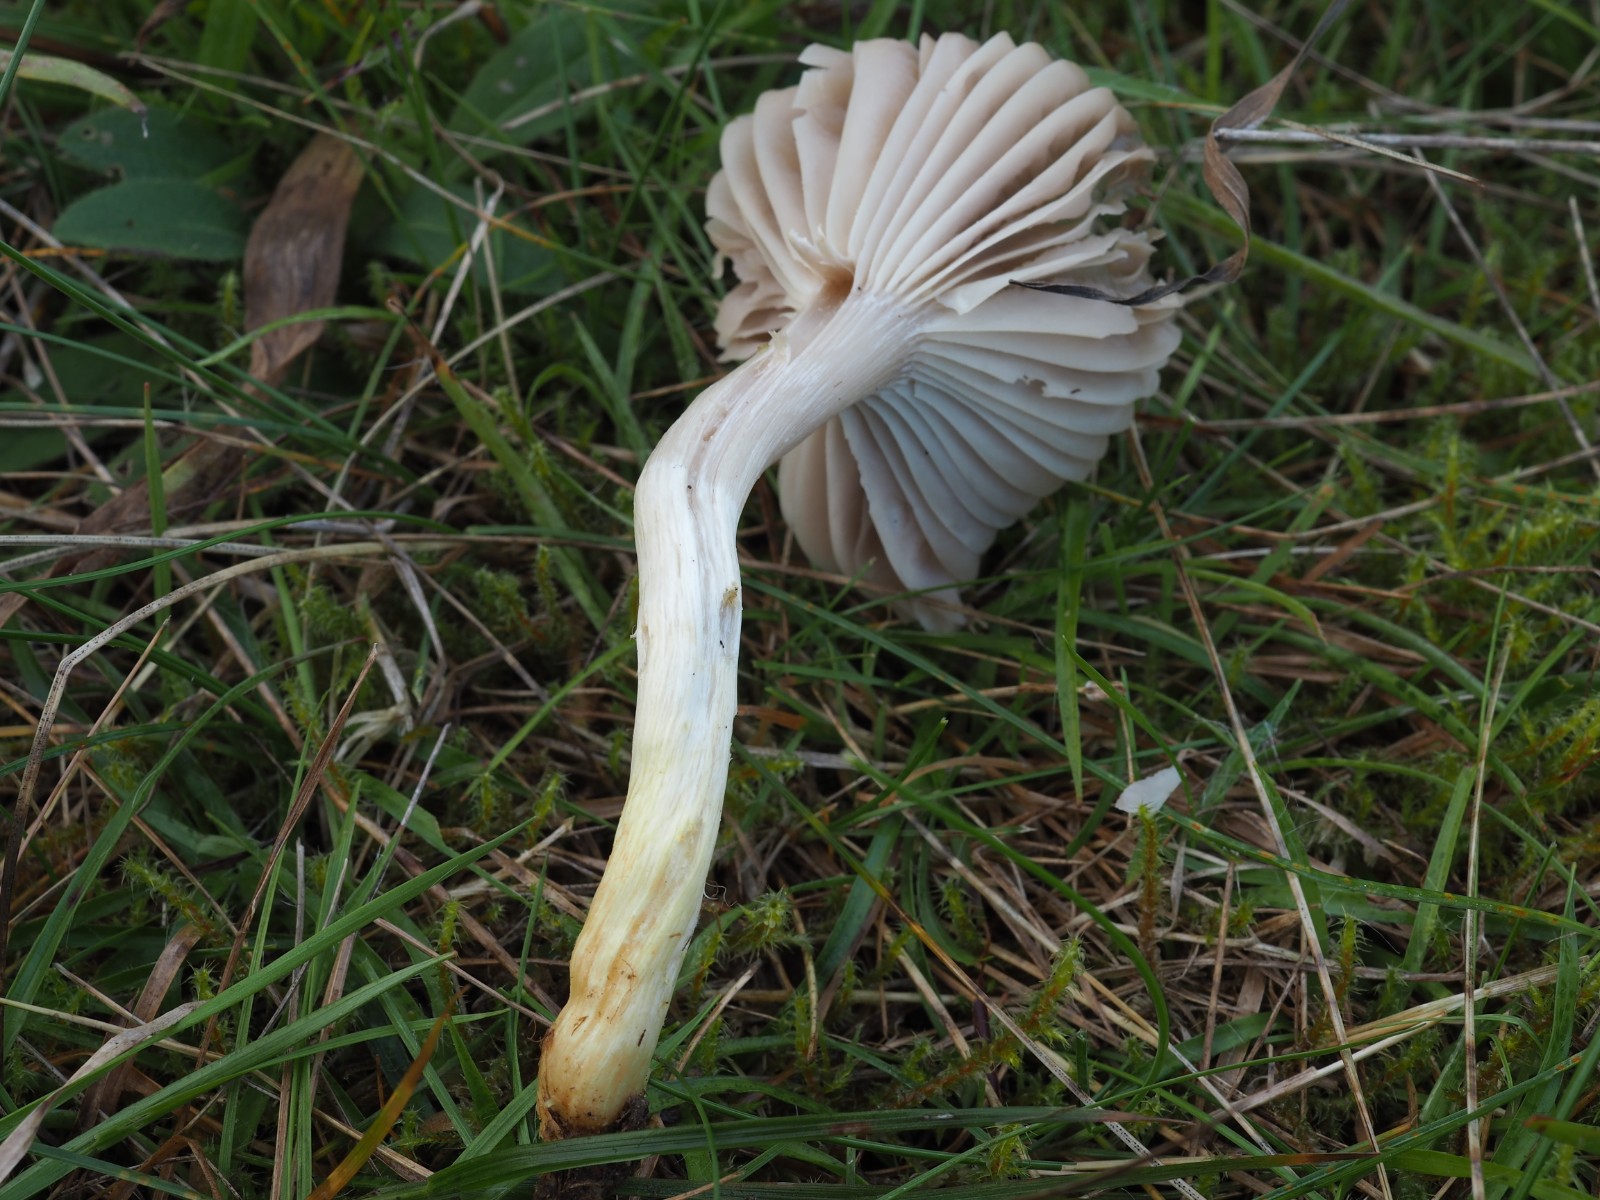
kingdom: Fungi
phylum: Basidiomycota
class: Agaricomycetes
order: Agaricales
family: Hygrophoraceae
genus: Cuphophyllus
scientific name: Cuphophyllus flavipes
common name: gulfodet vokshat
